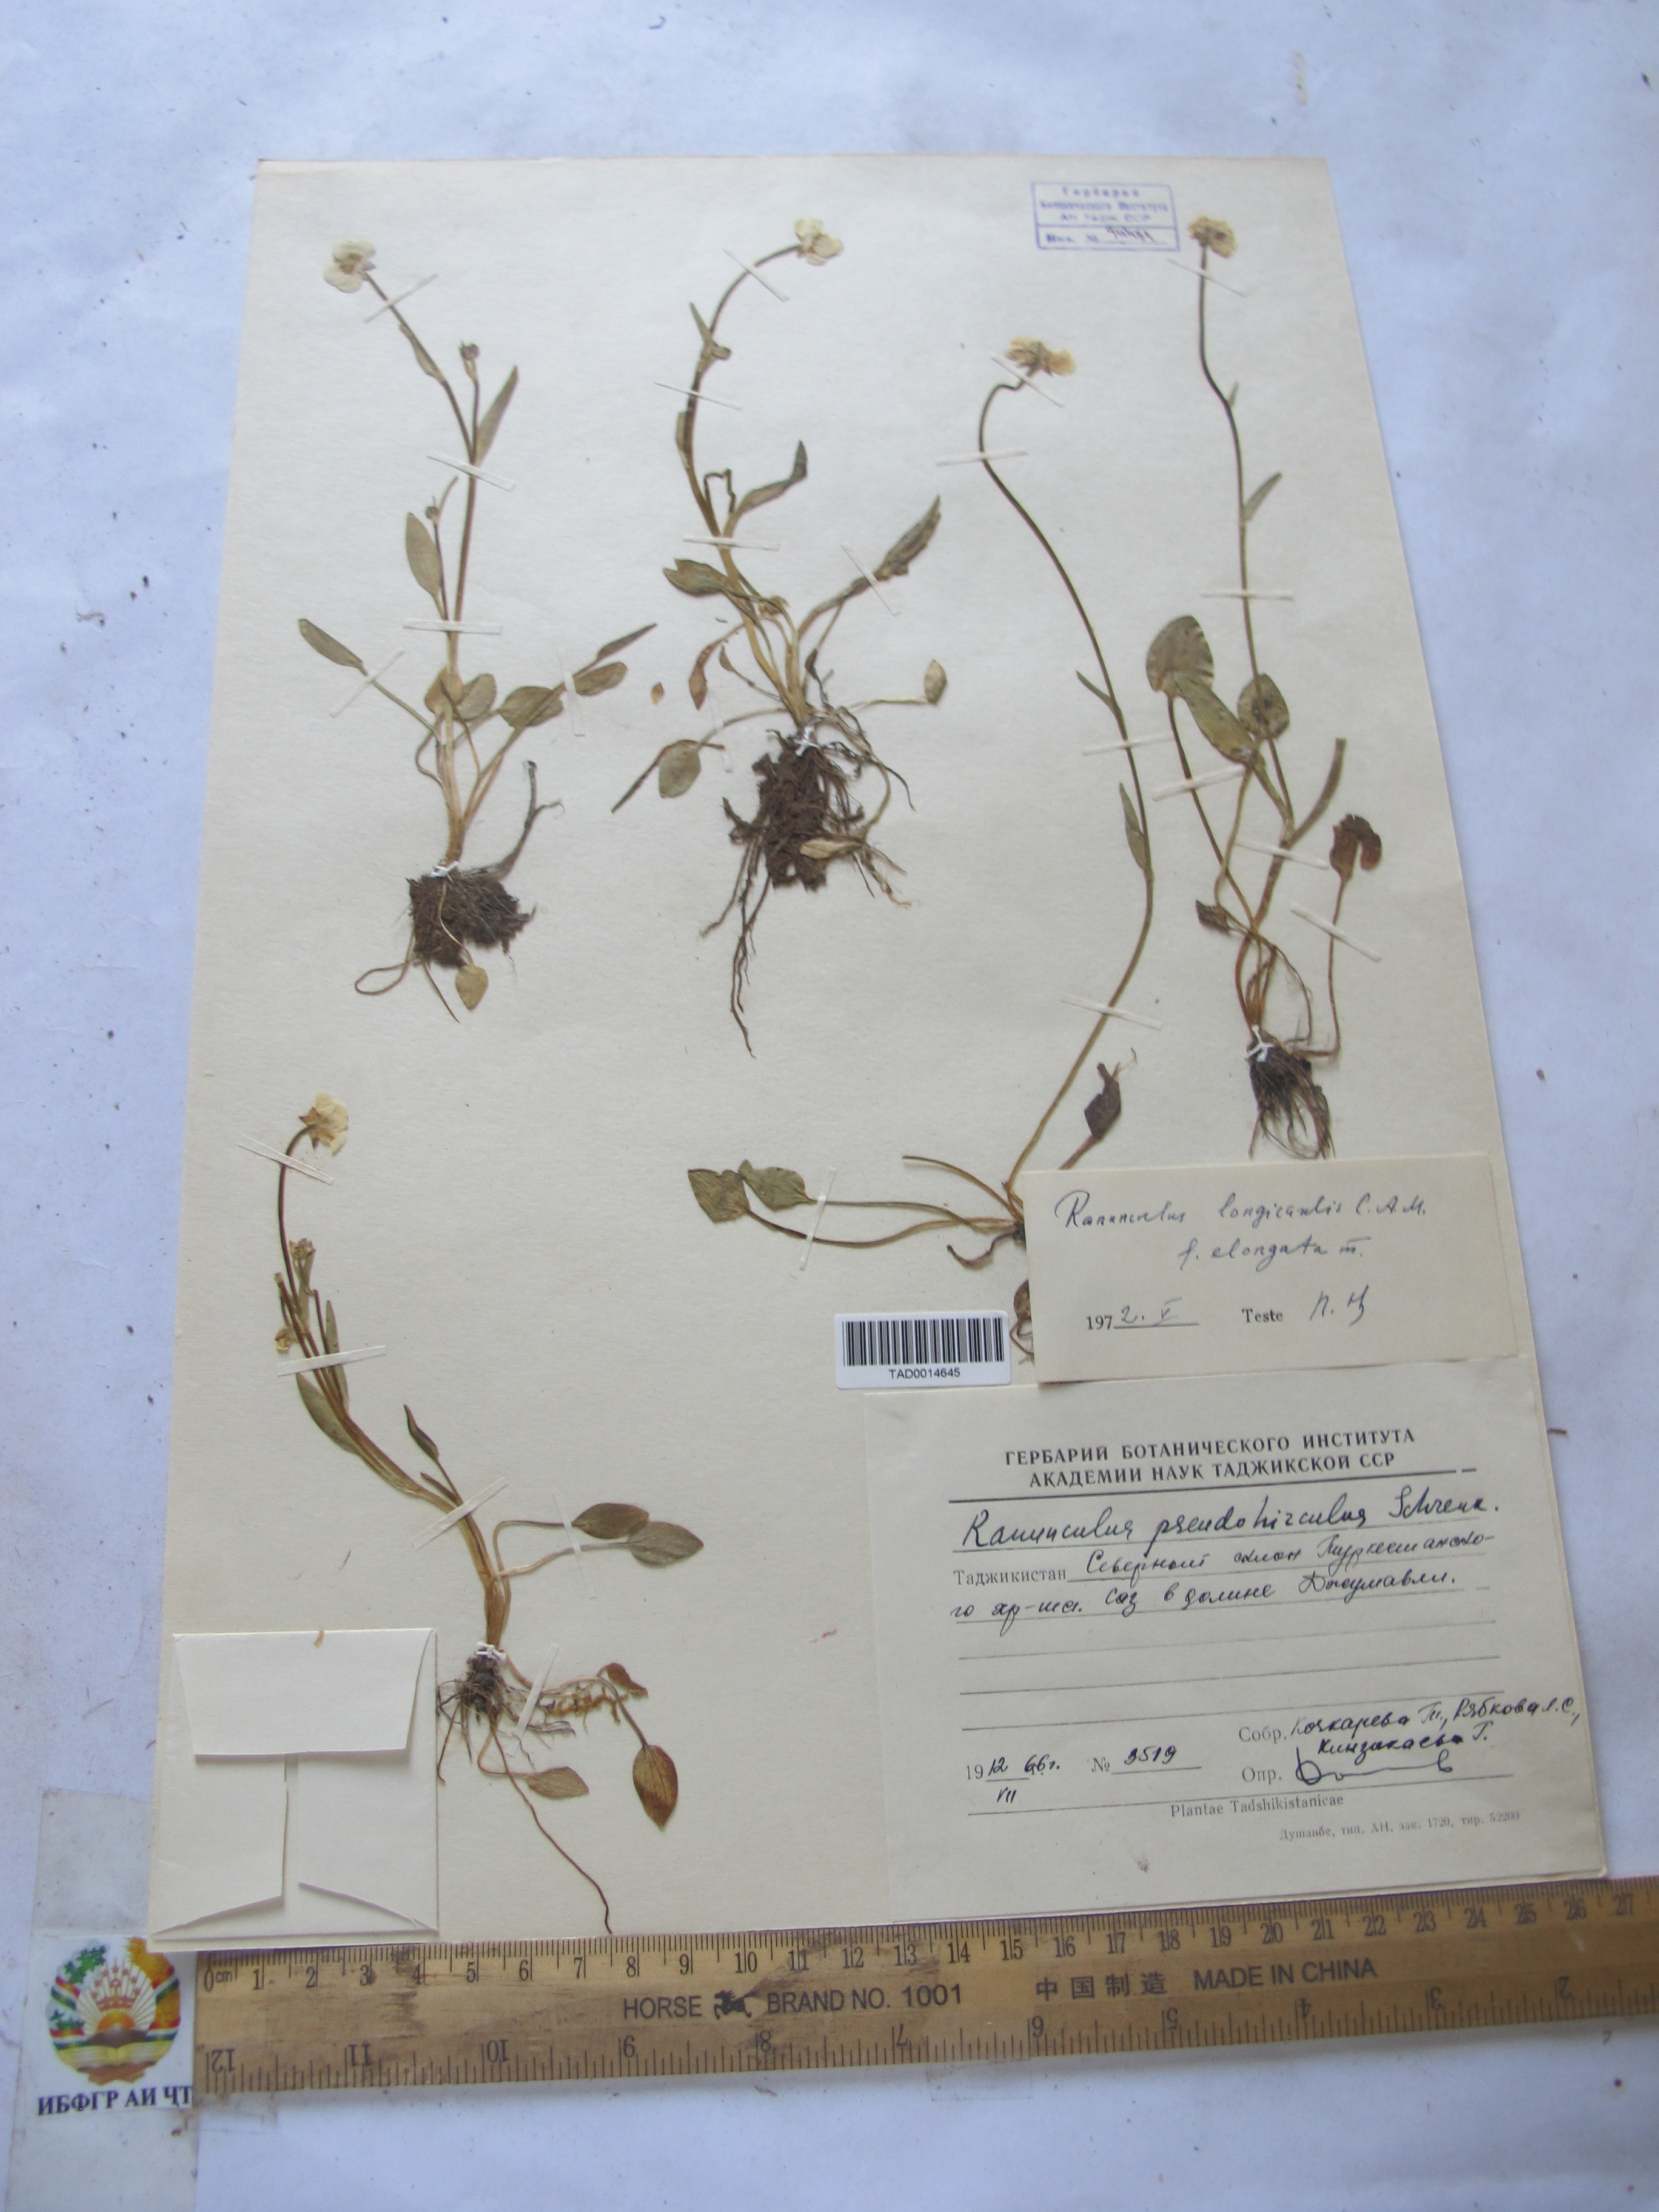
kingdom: Plantae
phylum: Tracheophyta
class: Magnoliopsida
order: Ranunculales
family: Ranunculaceae
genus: Ranunculus
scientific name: Ranunculus longicaulis
